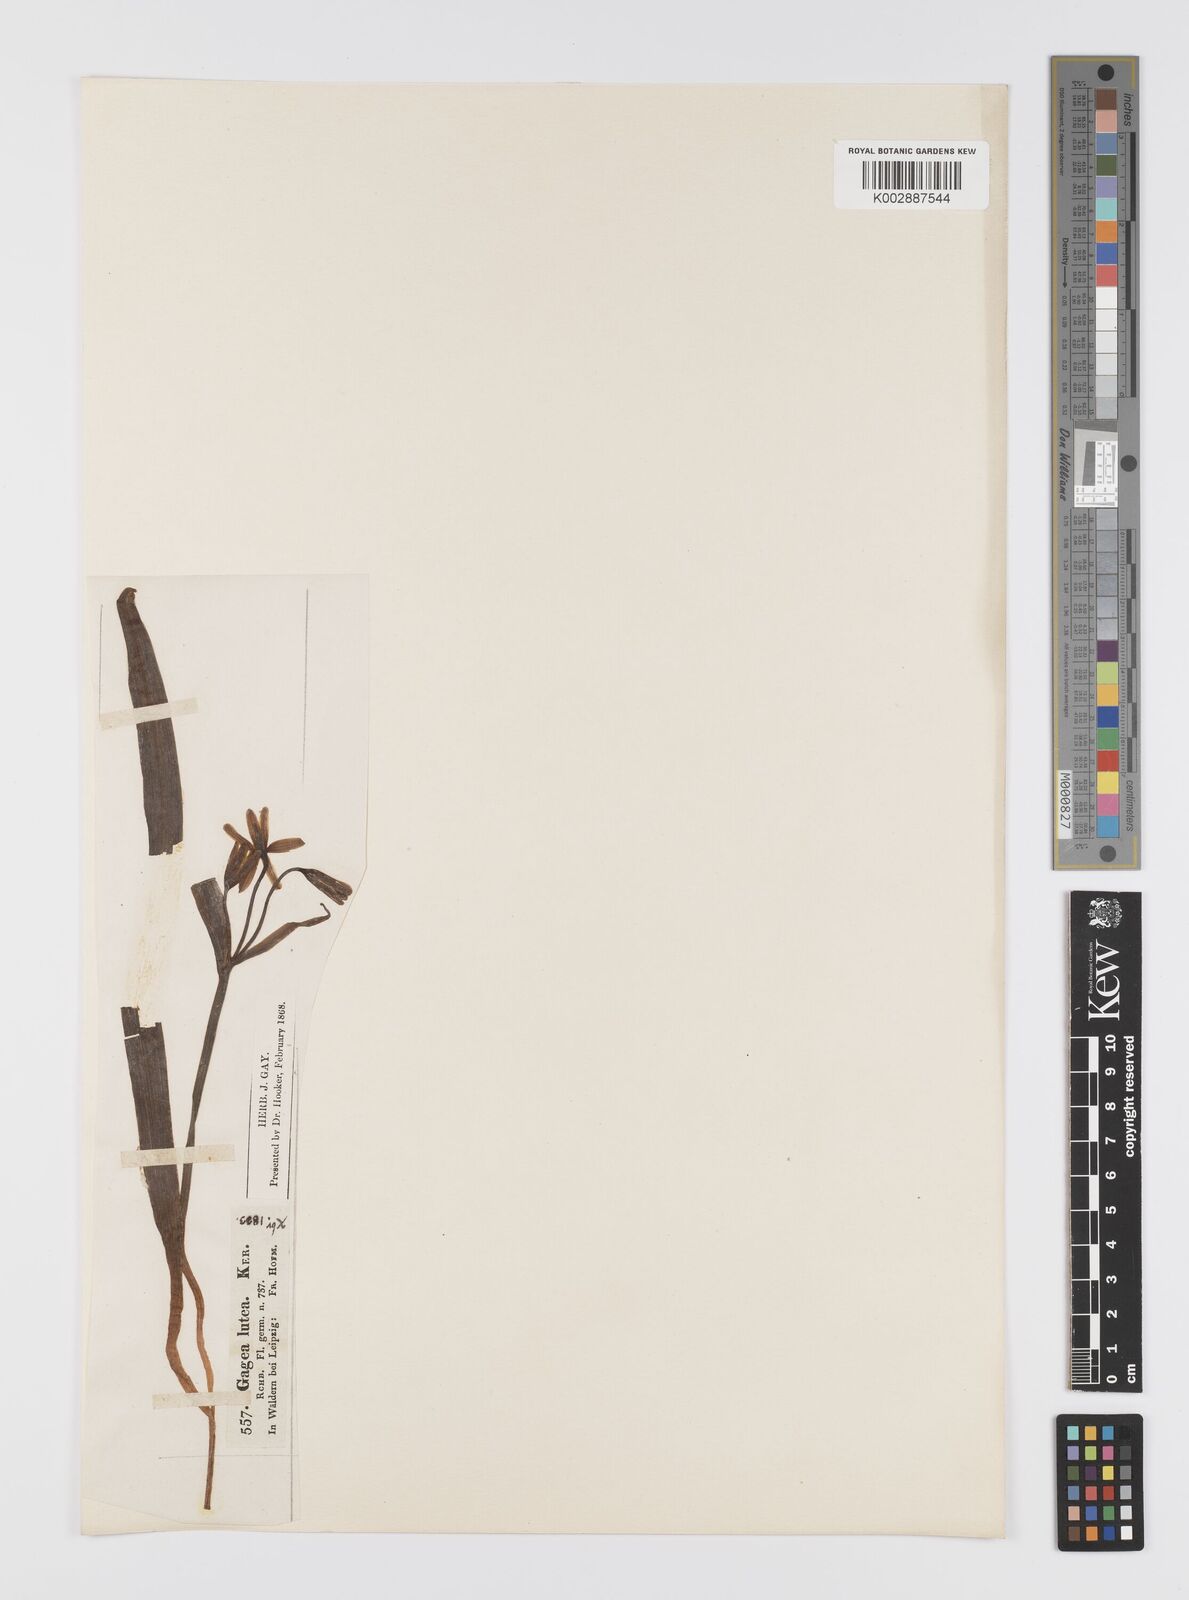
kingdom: Plantae
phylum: Tracheophyta
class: Liliopsida
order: Liliales
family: Liliaceae
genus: Gagea
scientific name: Gagea lutea
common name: Yellow star-of-bethlehem
